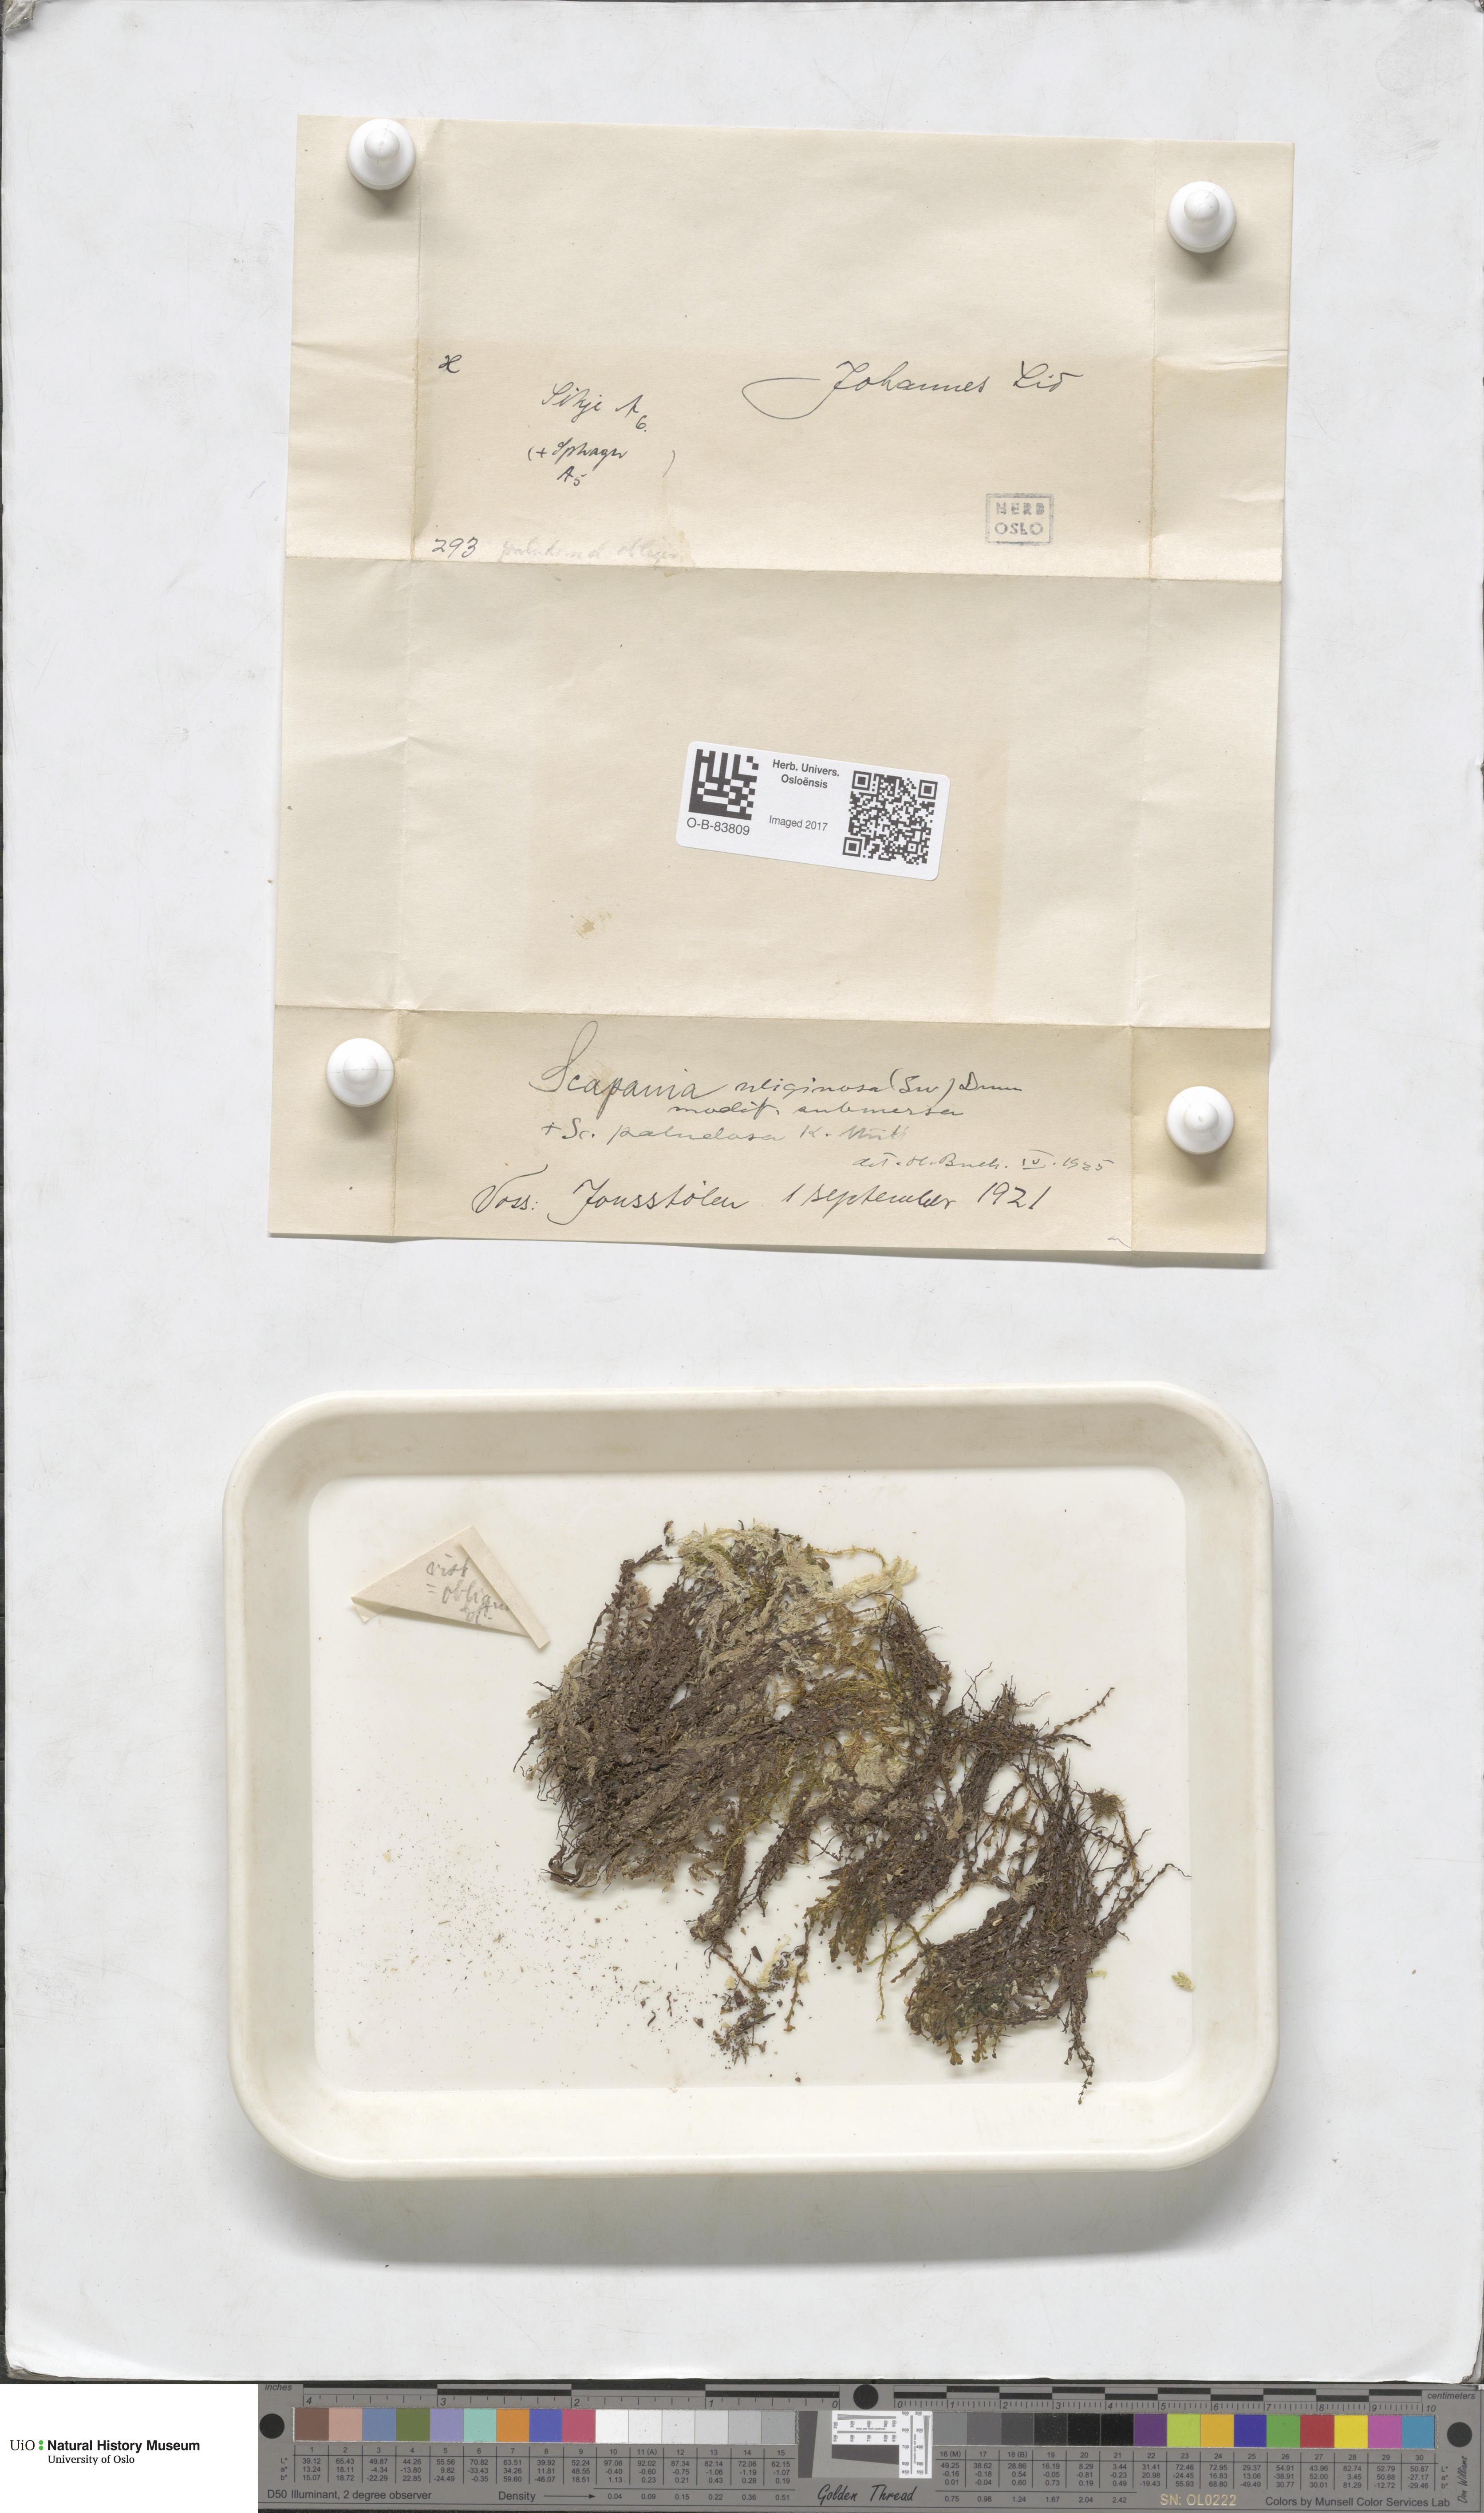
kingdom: Plantae
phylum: Marchantiophyta
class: Jungermanniopsida
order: Jungermanniales
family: Scapaniaceae
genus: Scapania
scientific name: Scapania uliginosa
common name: Marsh earwort
